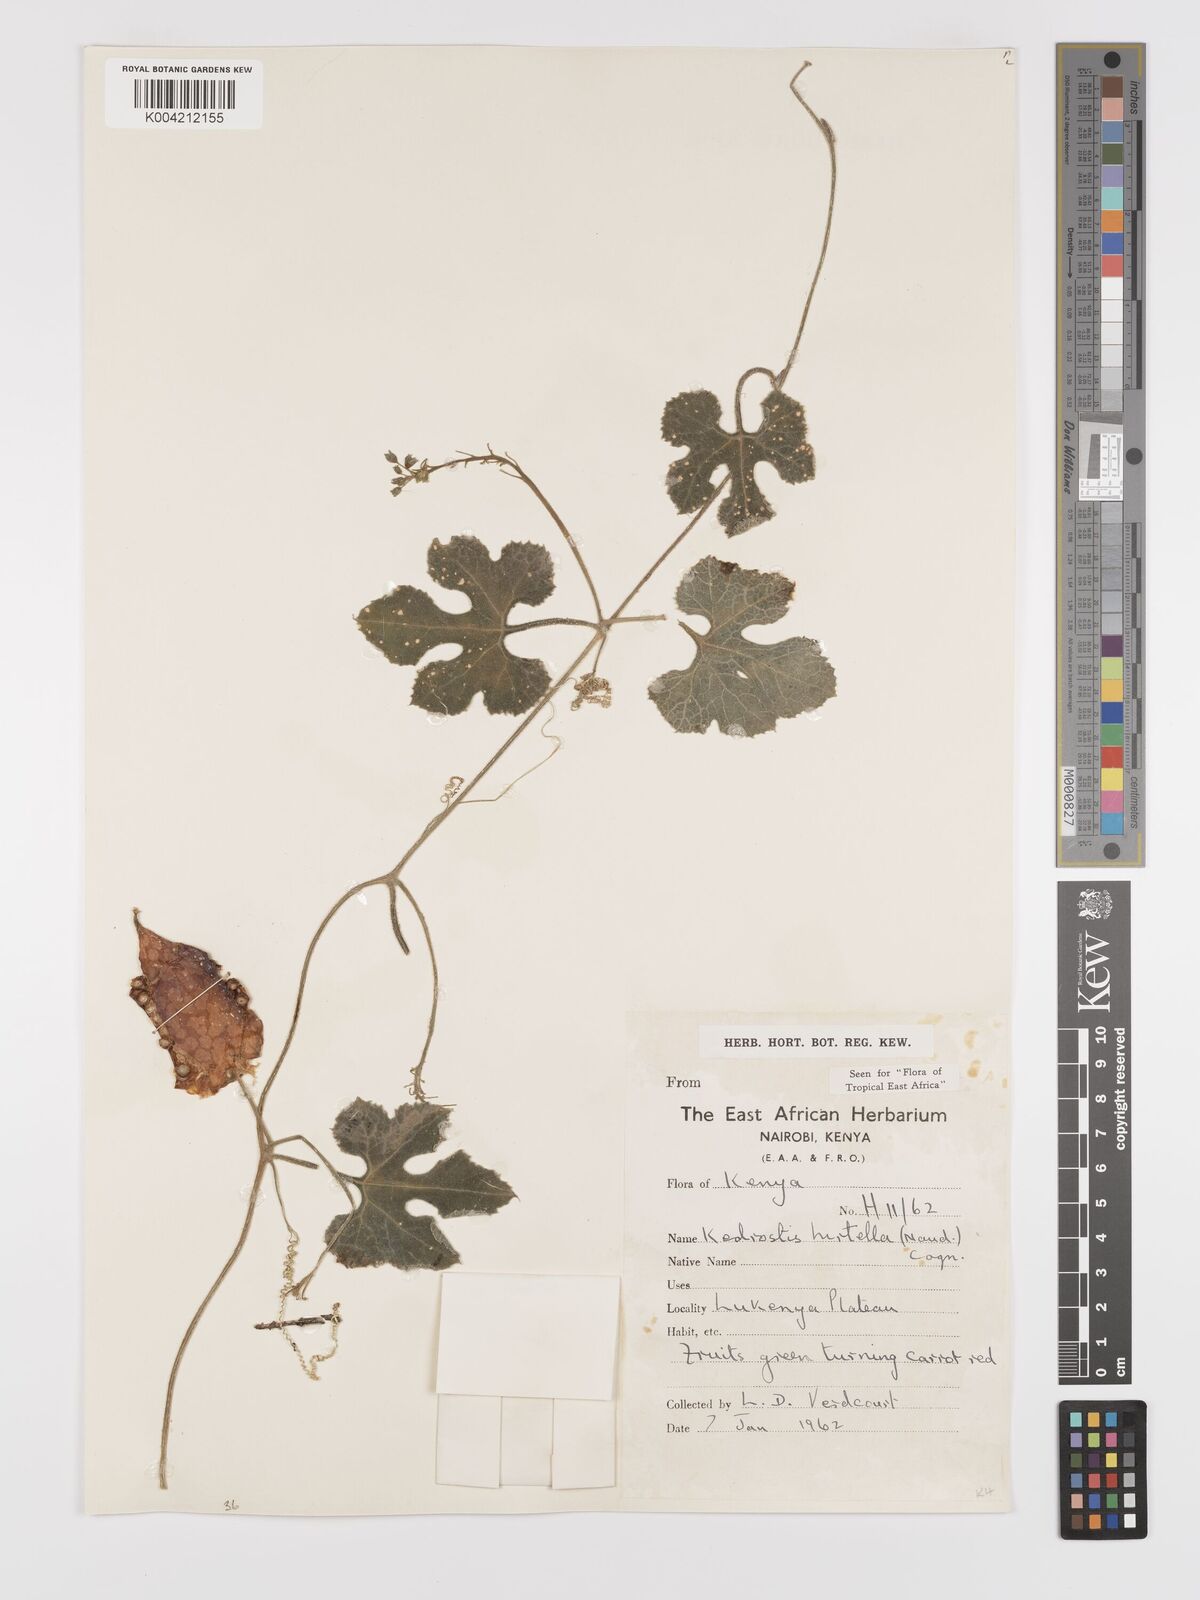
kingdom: Plantae
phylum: Tracheophyta
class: Magnoliopsida
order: Cucurbitales
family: Cucurbitaceae
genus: Kedrostis
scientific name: Kedrostis leloja
